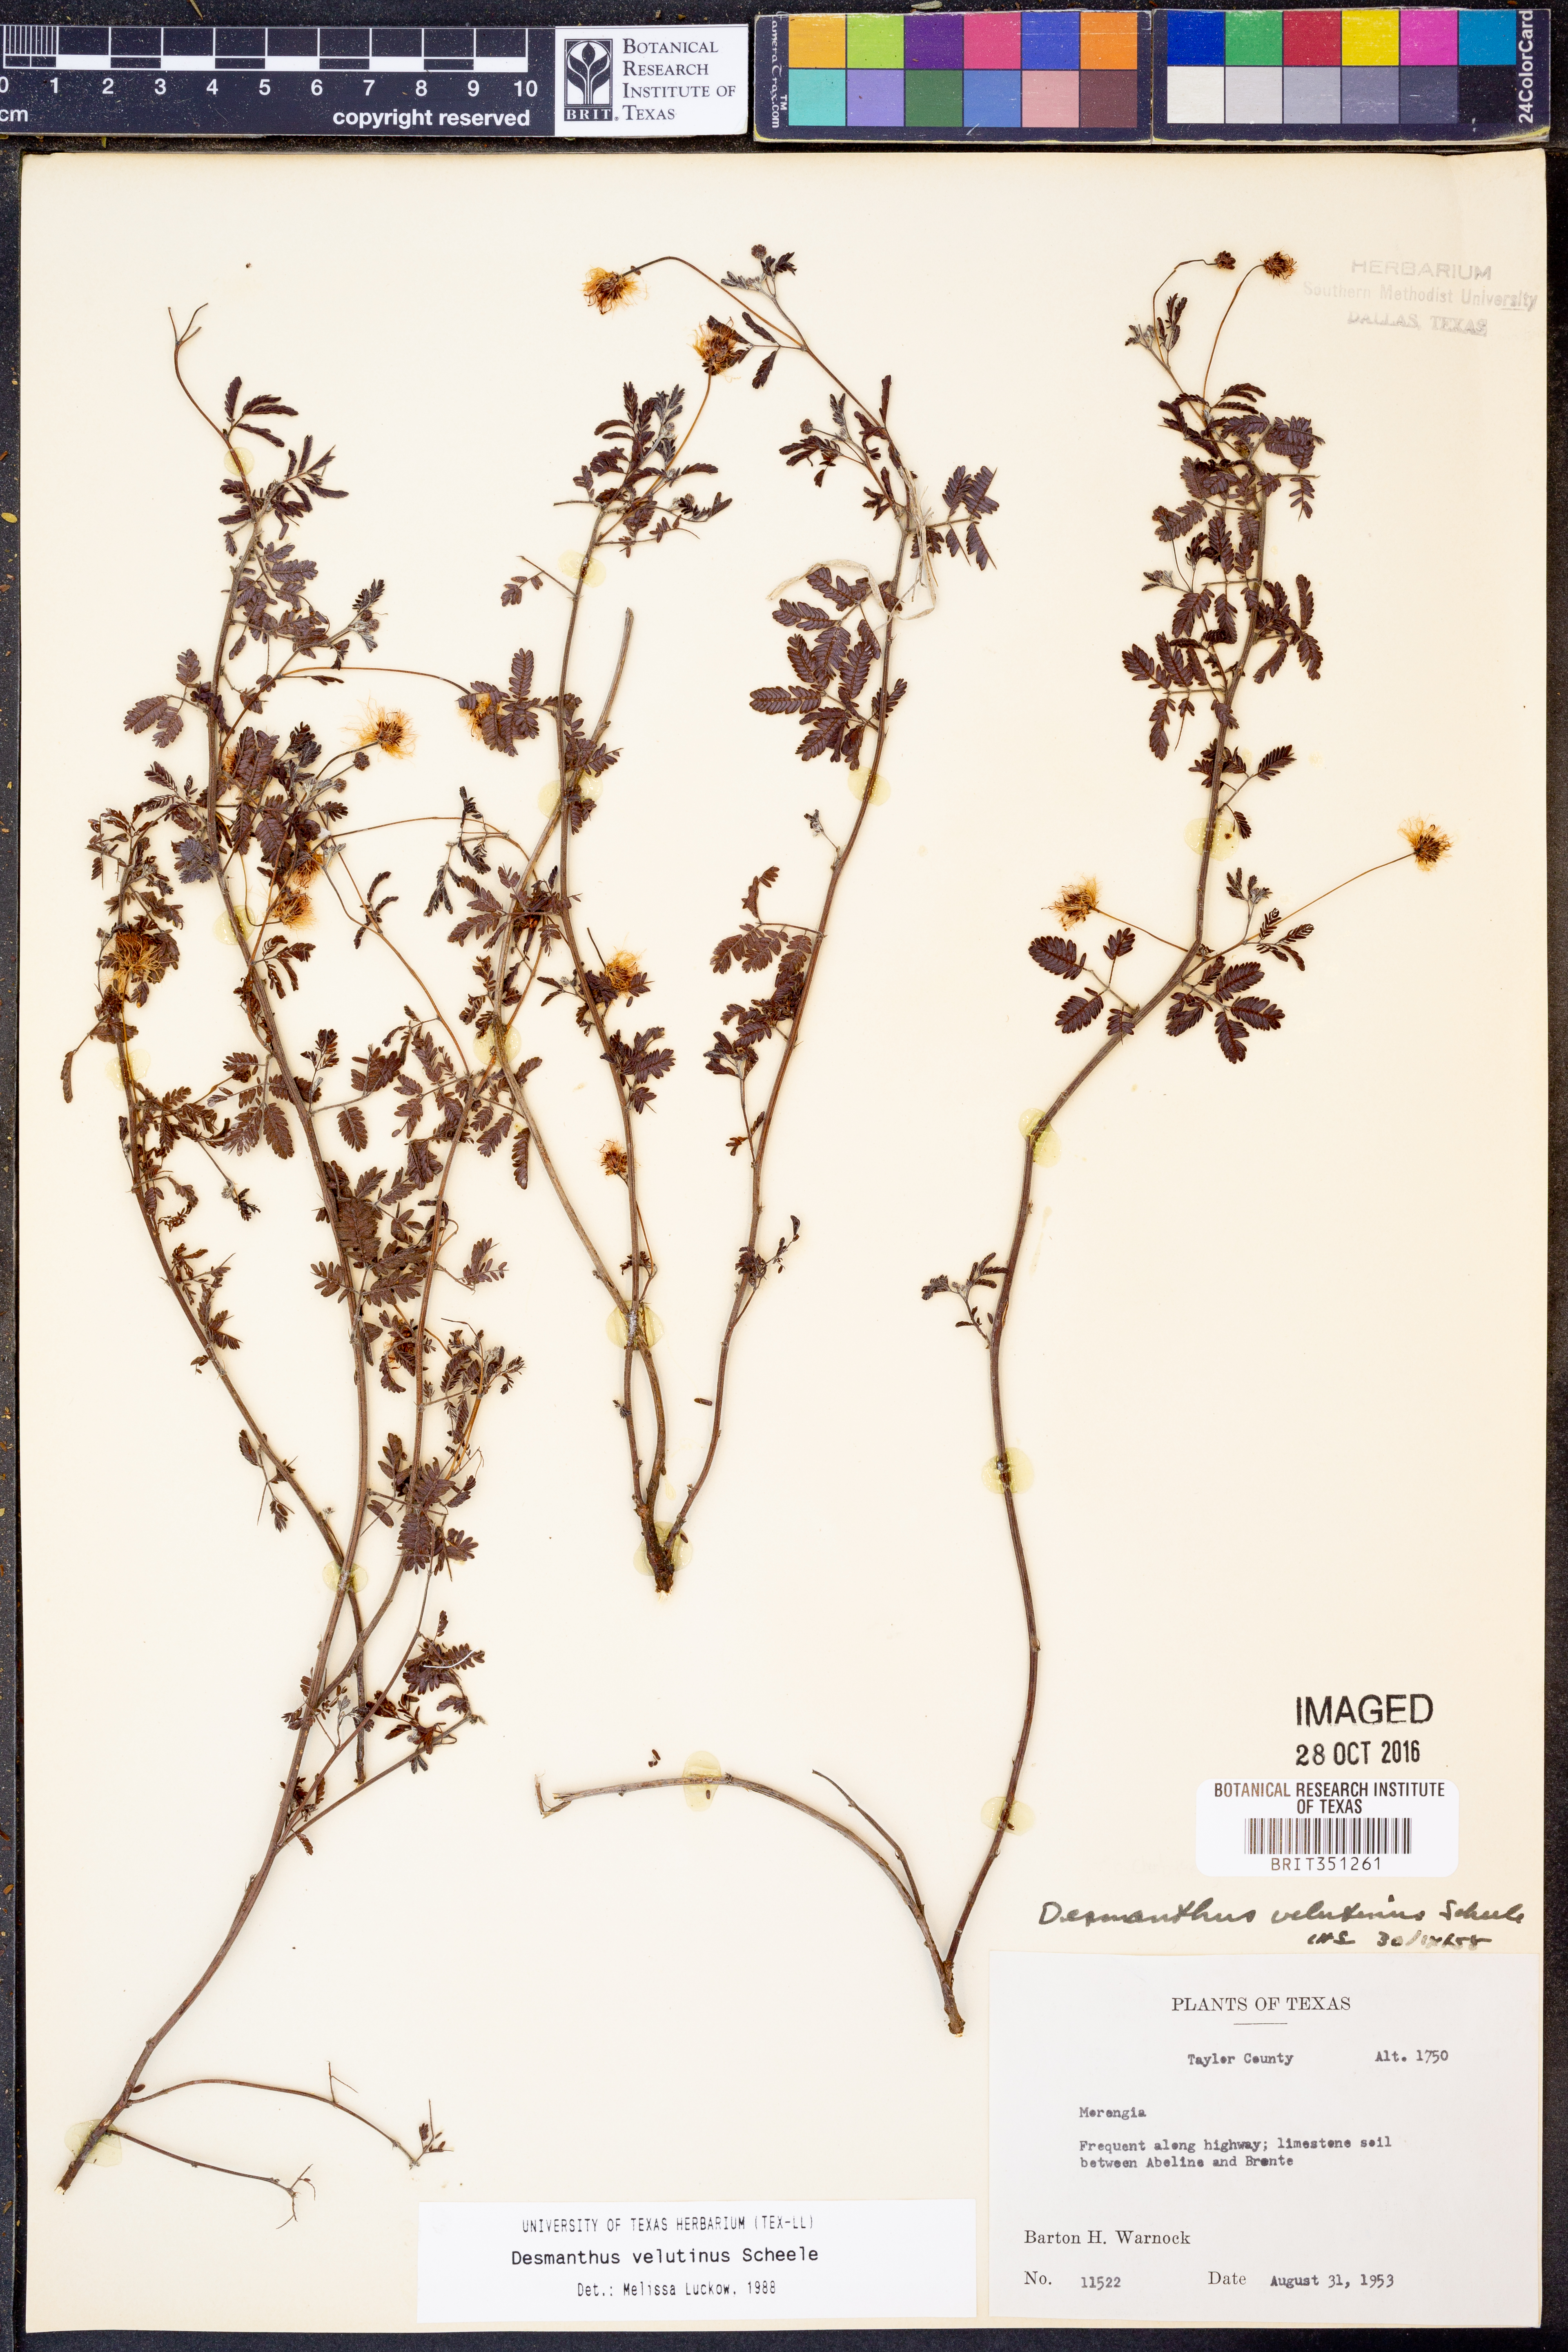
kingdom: Plantae
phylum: Tracheophyta
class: Magnoliopsida
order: Fabales
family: Fabaceae
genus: Desmanthus
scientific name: Desmanthus velutinus
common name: Velvet bundle-flower
